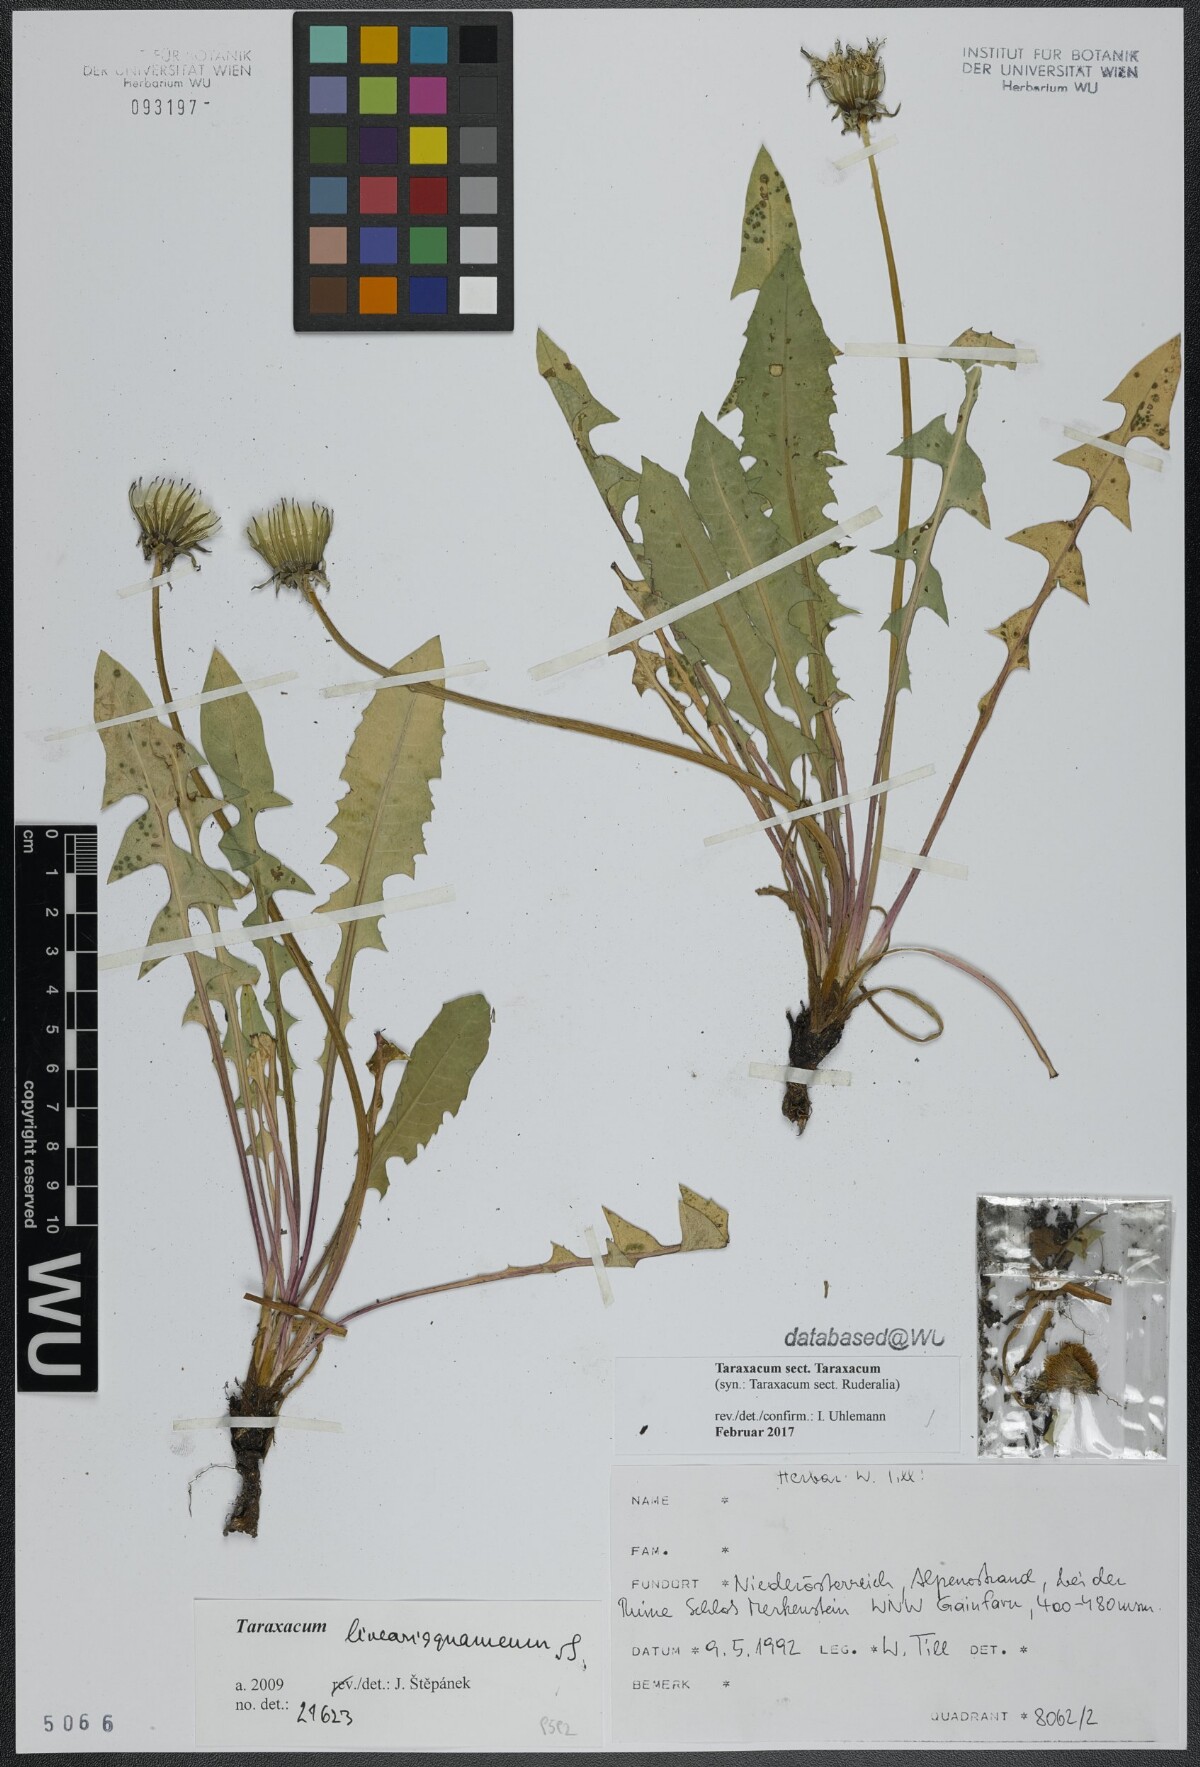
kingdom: Plantae
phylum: Tracheophyta
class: Magnoliopsida
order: Asterales
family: Asteraceae
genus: Taraxacum
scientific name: Taraxacum
